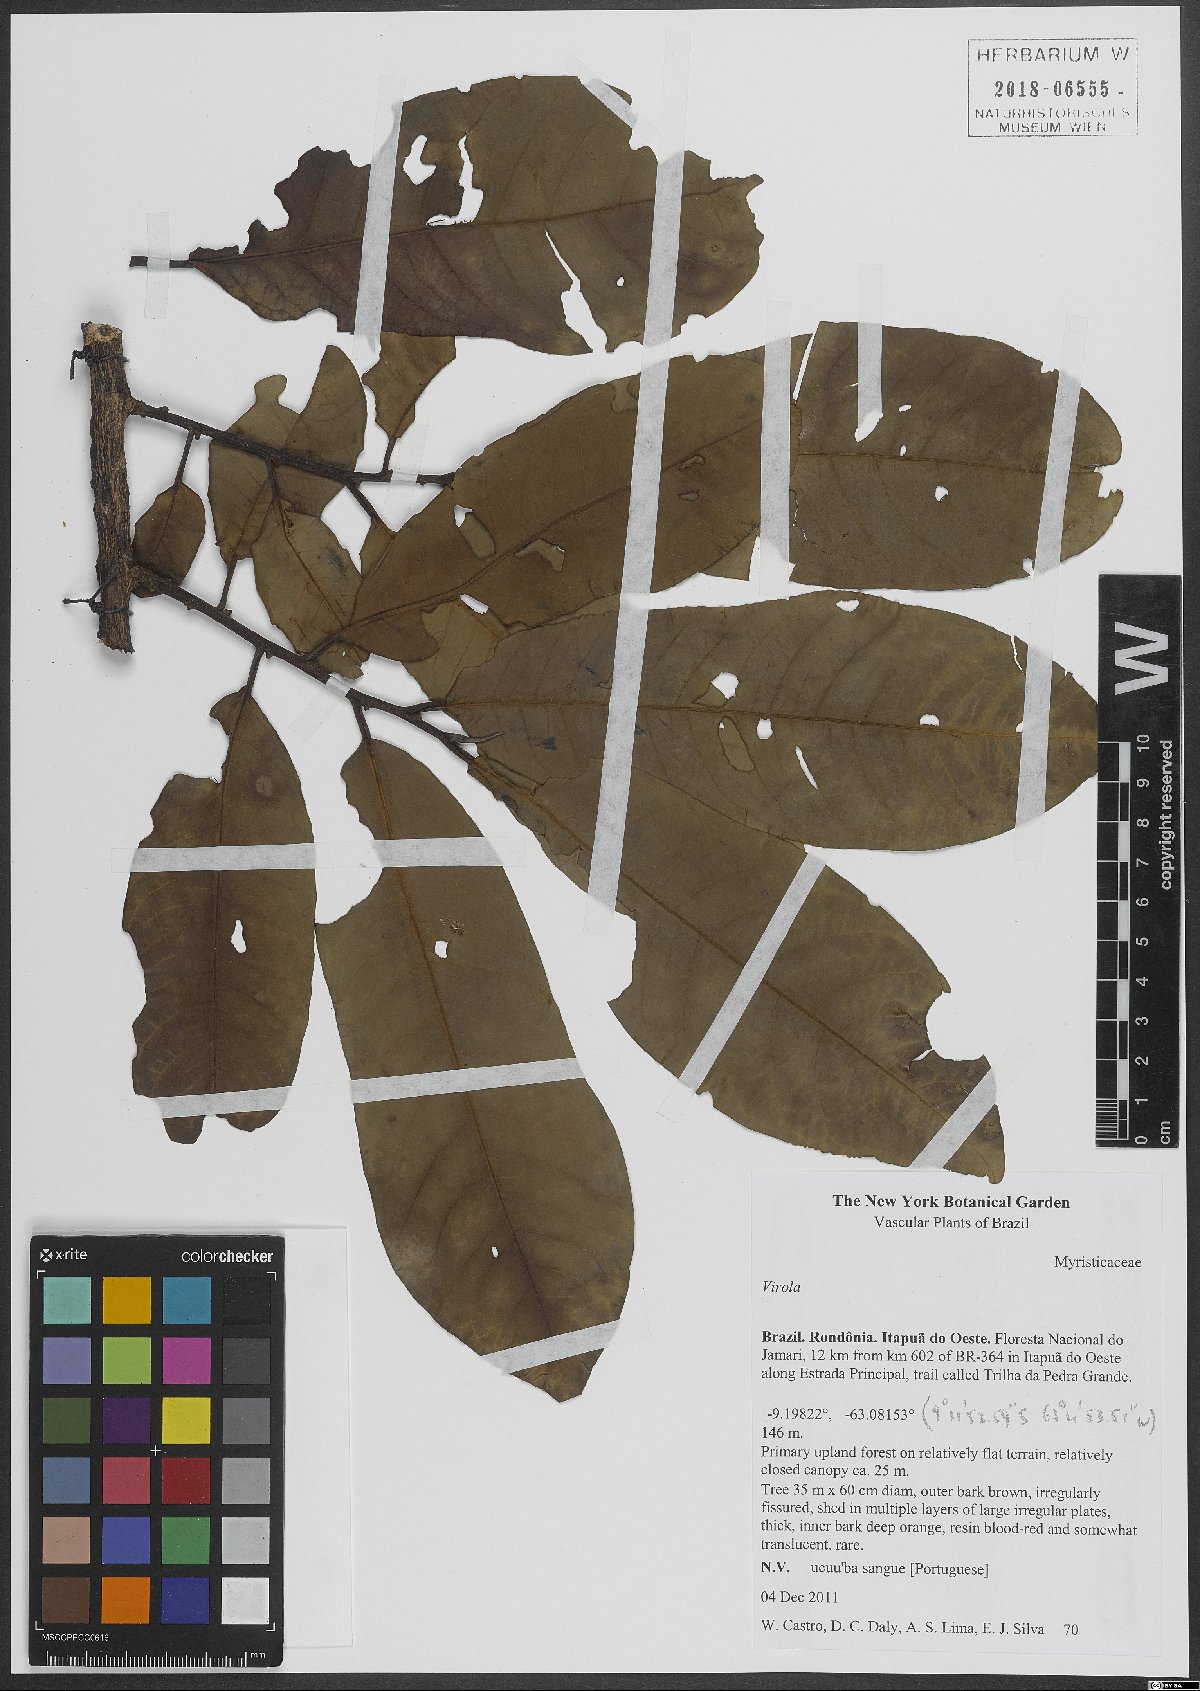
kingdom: Plantae
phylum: Tracheophyta
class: Magnoliopsida
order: Magnoliales
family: Myristicaceae
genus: Virola
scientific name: Virola
